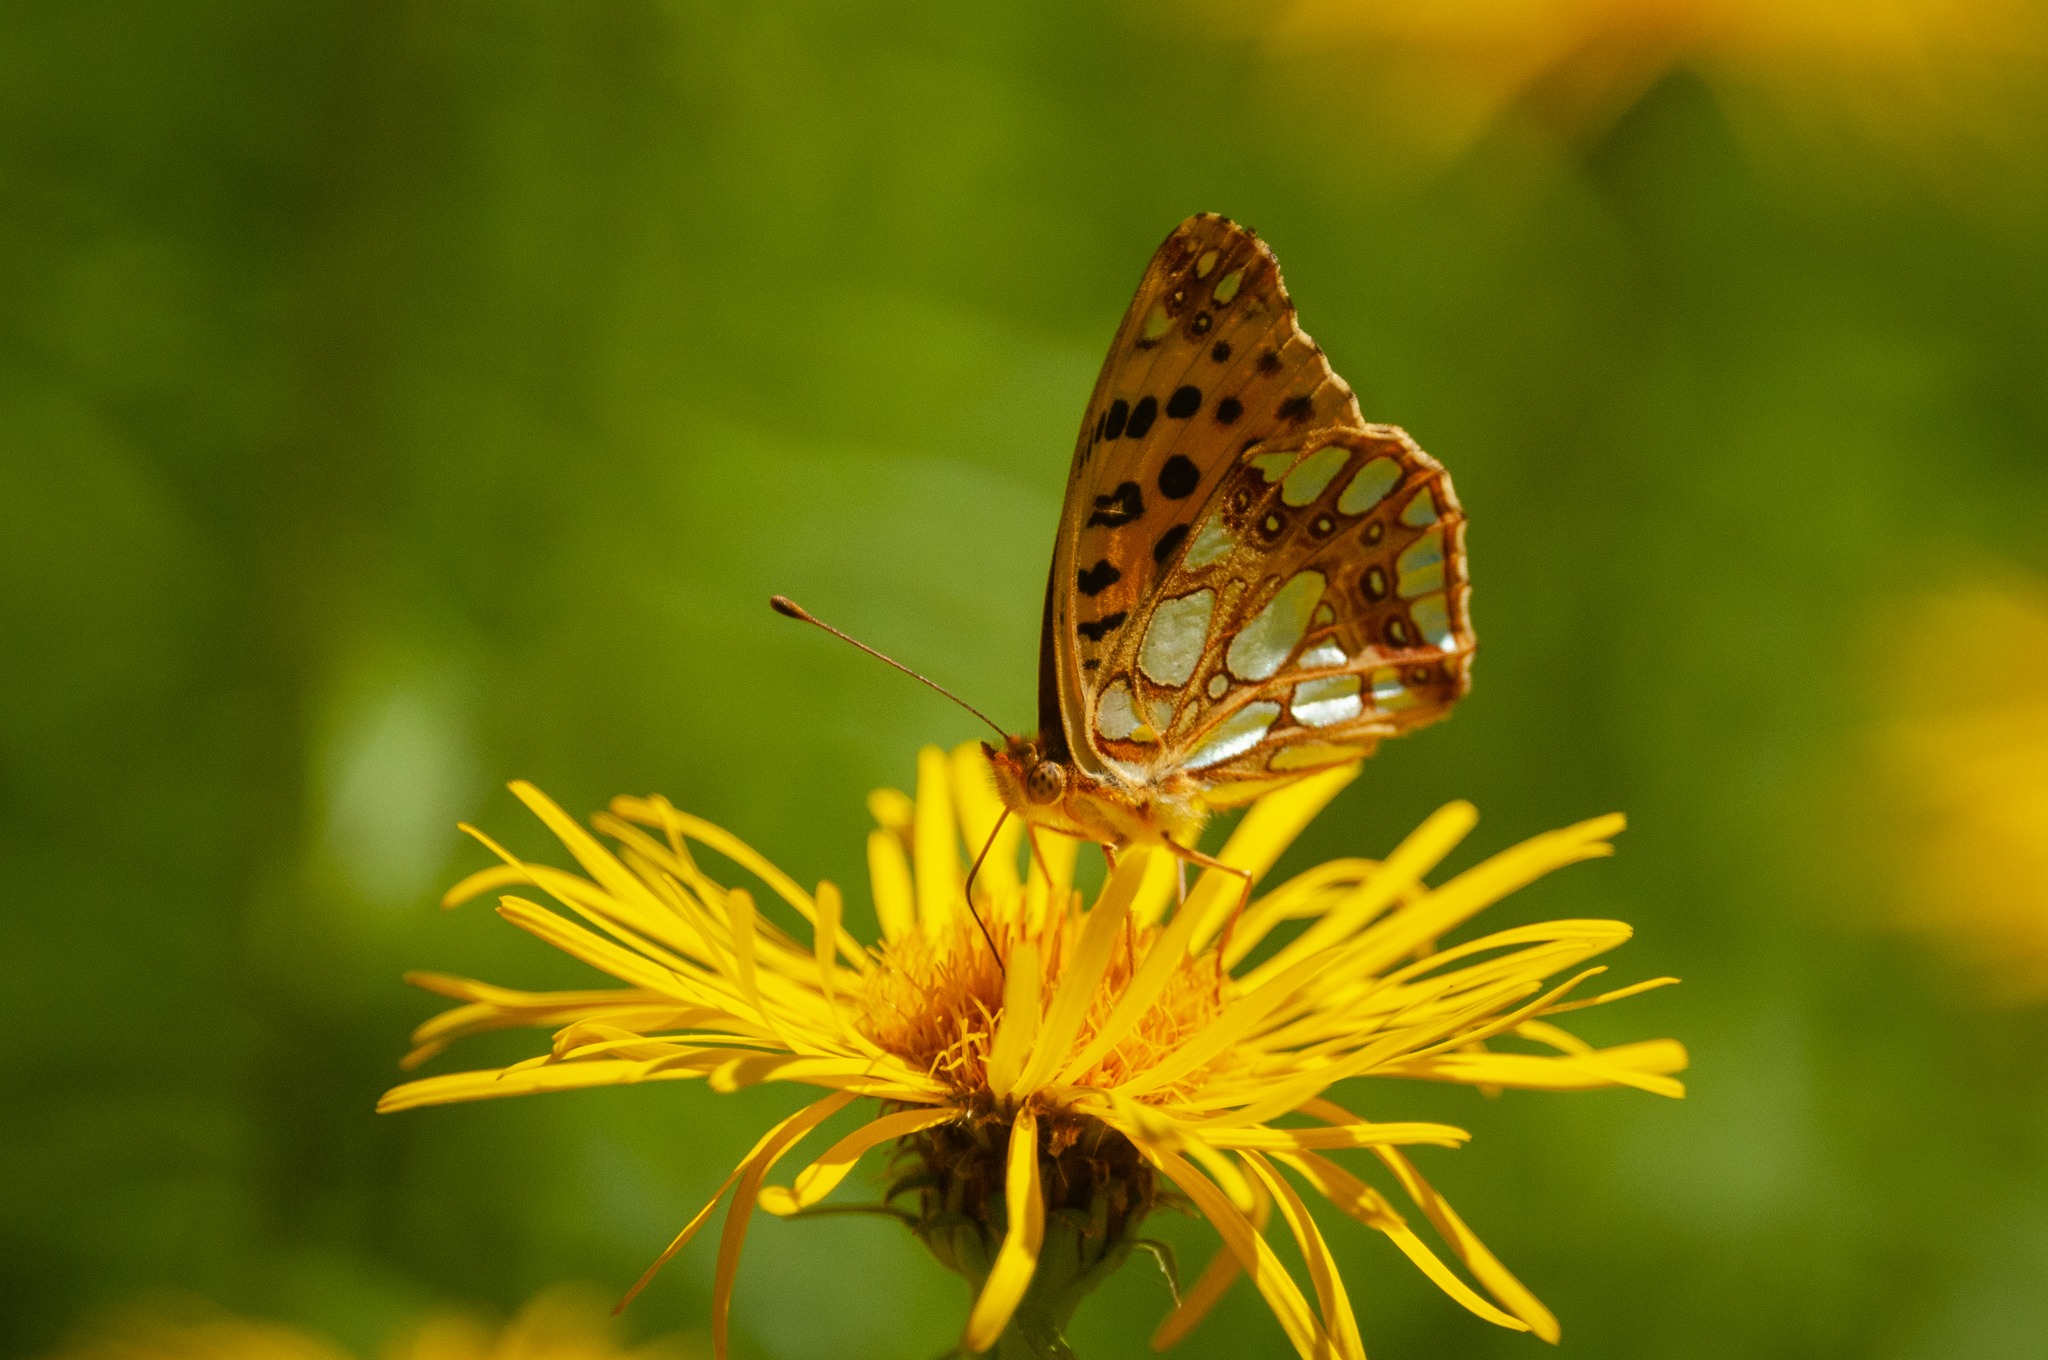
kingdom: Animalia
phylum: Arthropoda
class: Insecta
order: Lepidoptera
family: Nymphalidae
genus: Issoria
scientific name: Issoria lathonia
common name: Storplettet perlemorsommerfugl
